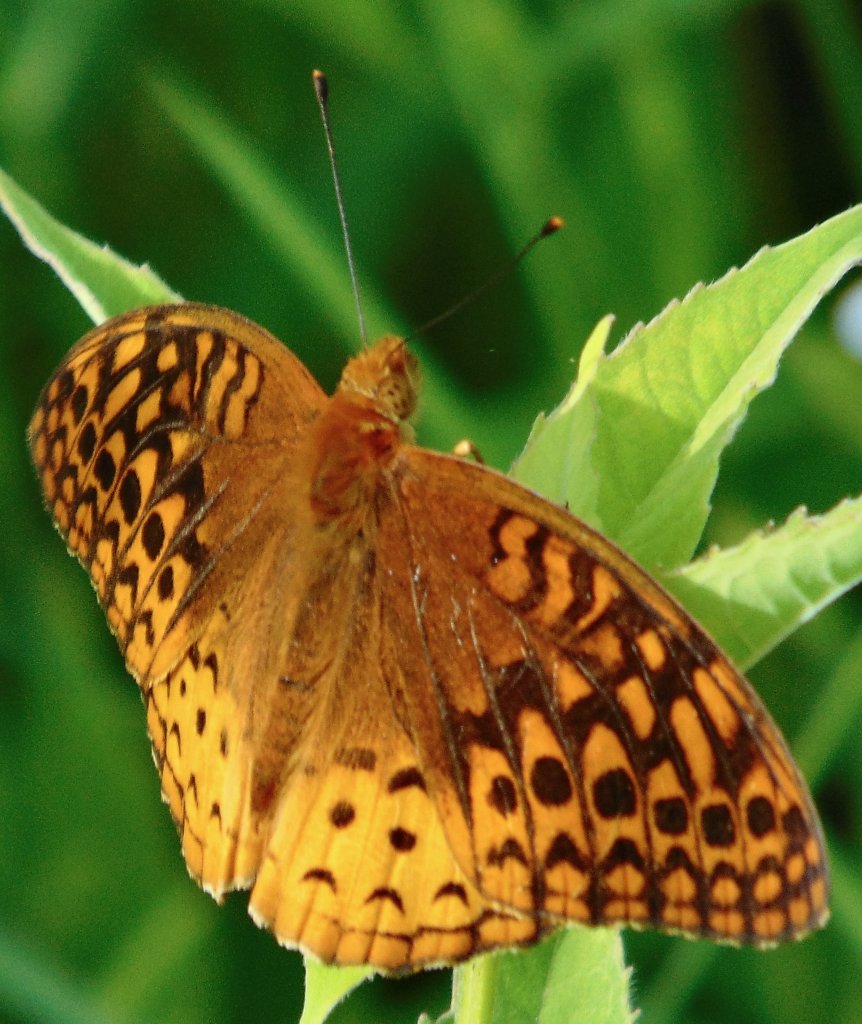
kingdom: Animalia
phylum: Arthropoda
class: Insecta
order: Lepidoptera
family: Nymphalidae
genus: Speyeria
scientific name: Speyeria cybele
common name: Great Spangled Fritillary
